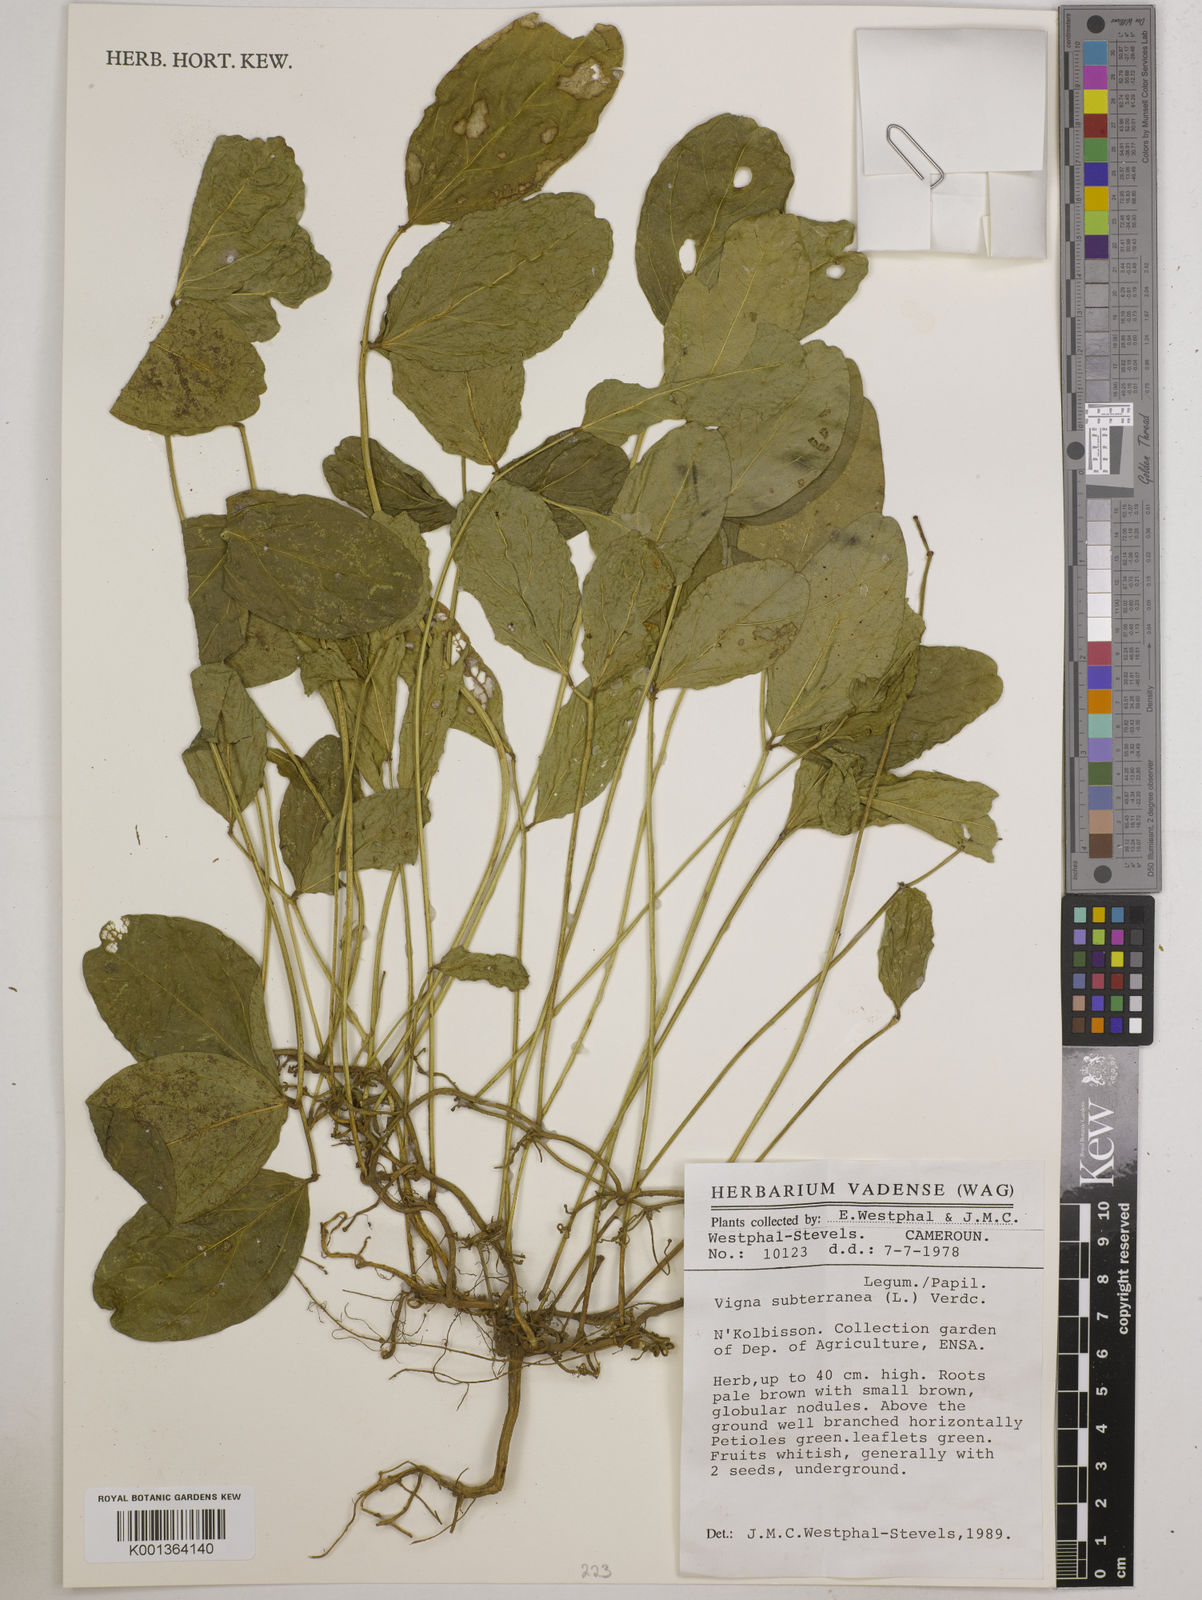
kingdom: Plantae
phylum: Tracheophyta
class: Magnoliopsida
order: Fabales
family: Fabaceae
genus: Vigna
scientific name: Vigna subterranea
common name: Bambara groundnut
